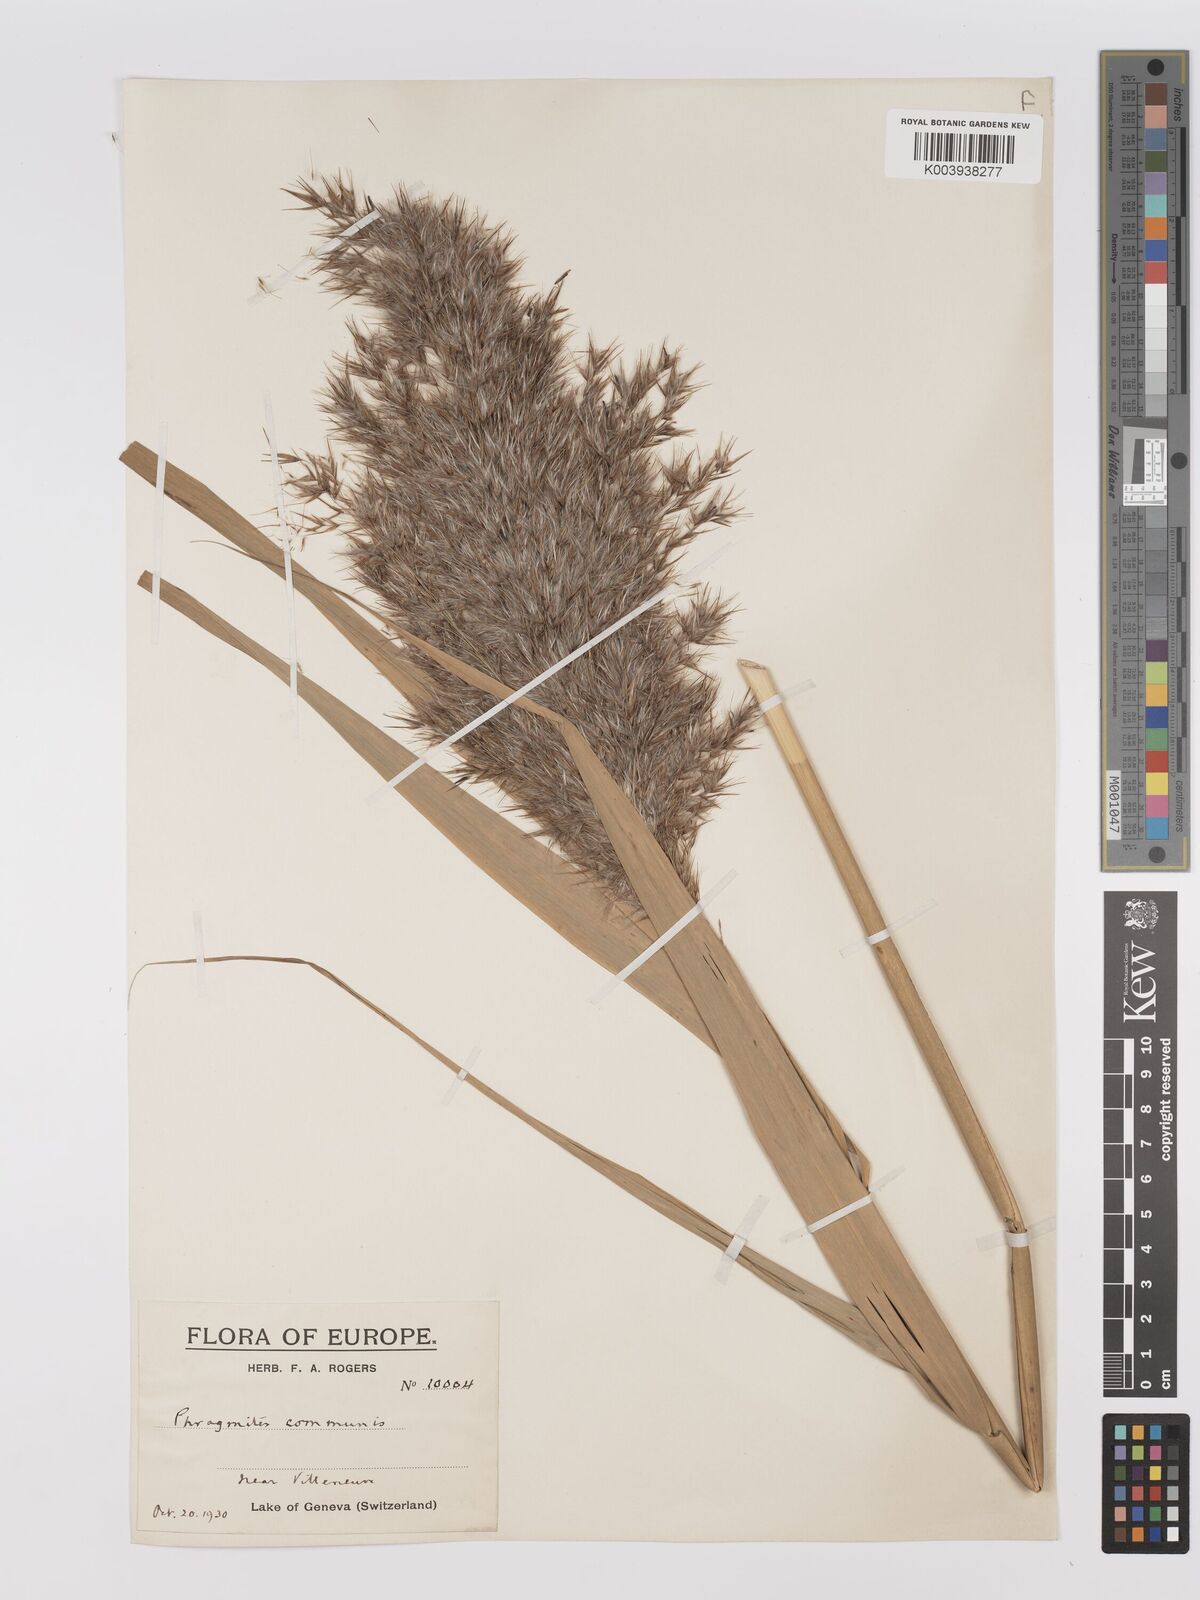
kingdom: Plantae
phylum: Tracheophyta
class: Liliopsida
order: Poales
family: Poaceae
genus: Phragmites
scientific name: Phragmites australis
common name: Common reed
